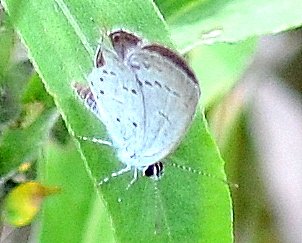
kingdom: Animalia
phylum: Arthropoda
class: Insecta
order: Lepidoptera
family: Lycaenidae
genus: Elkalyce
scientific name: Elkalyce comyntas
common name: Eastern Tailed-Blue
